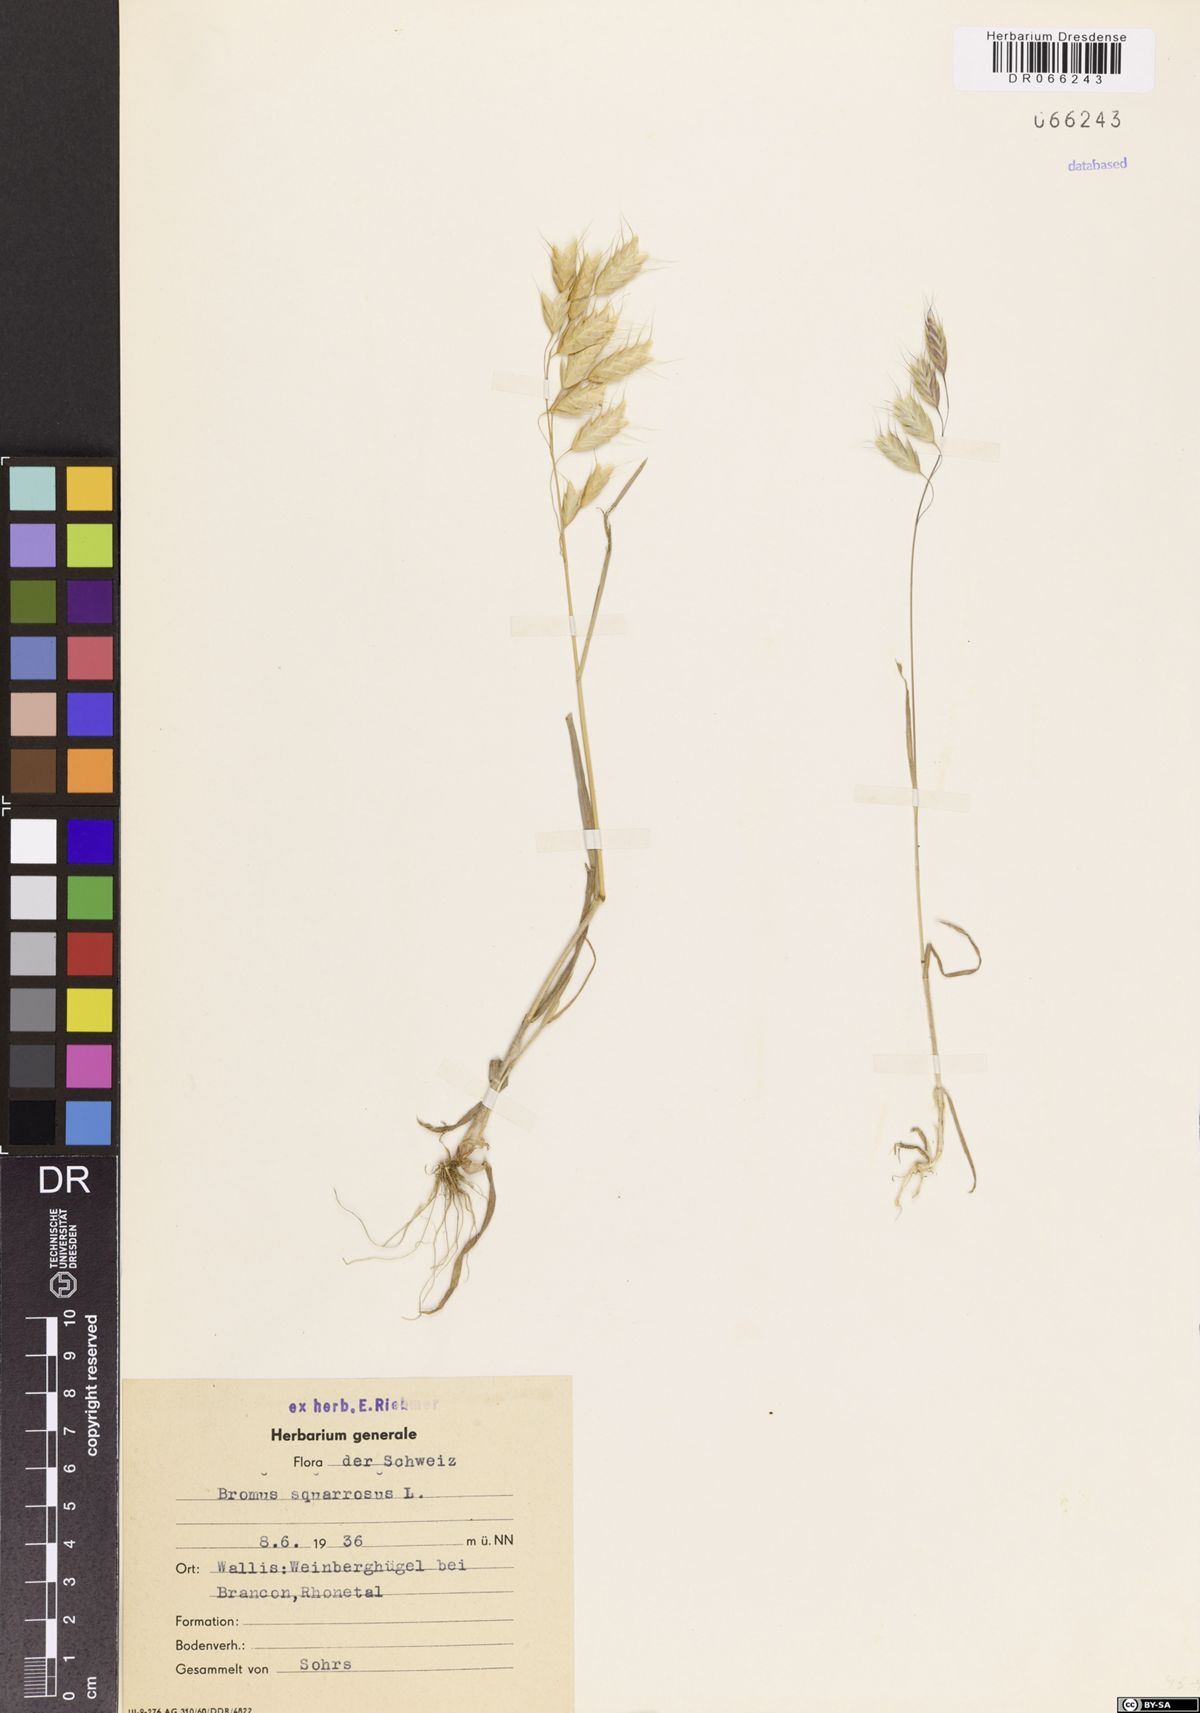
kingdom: Plantae
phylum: Tracheophyta
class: Liliopsida
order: Poales
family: Poaceae
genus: Bromus
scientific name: Bromus squarrosus
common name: Corn brome
